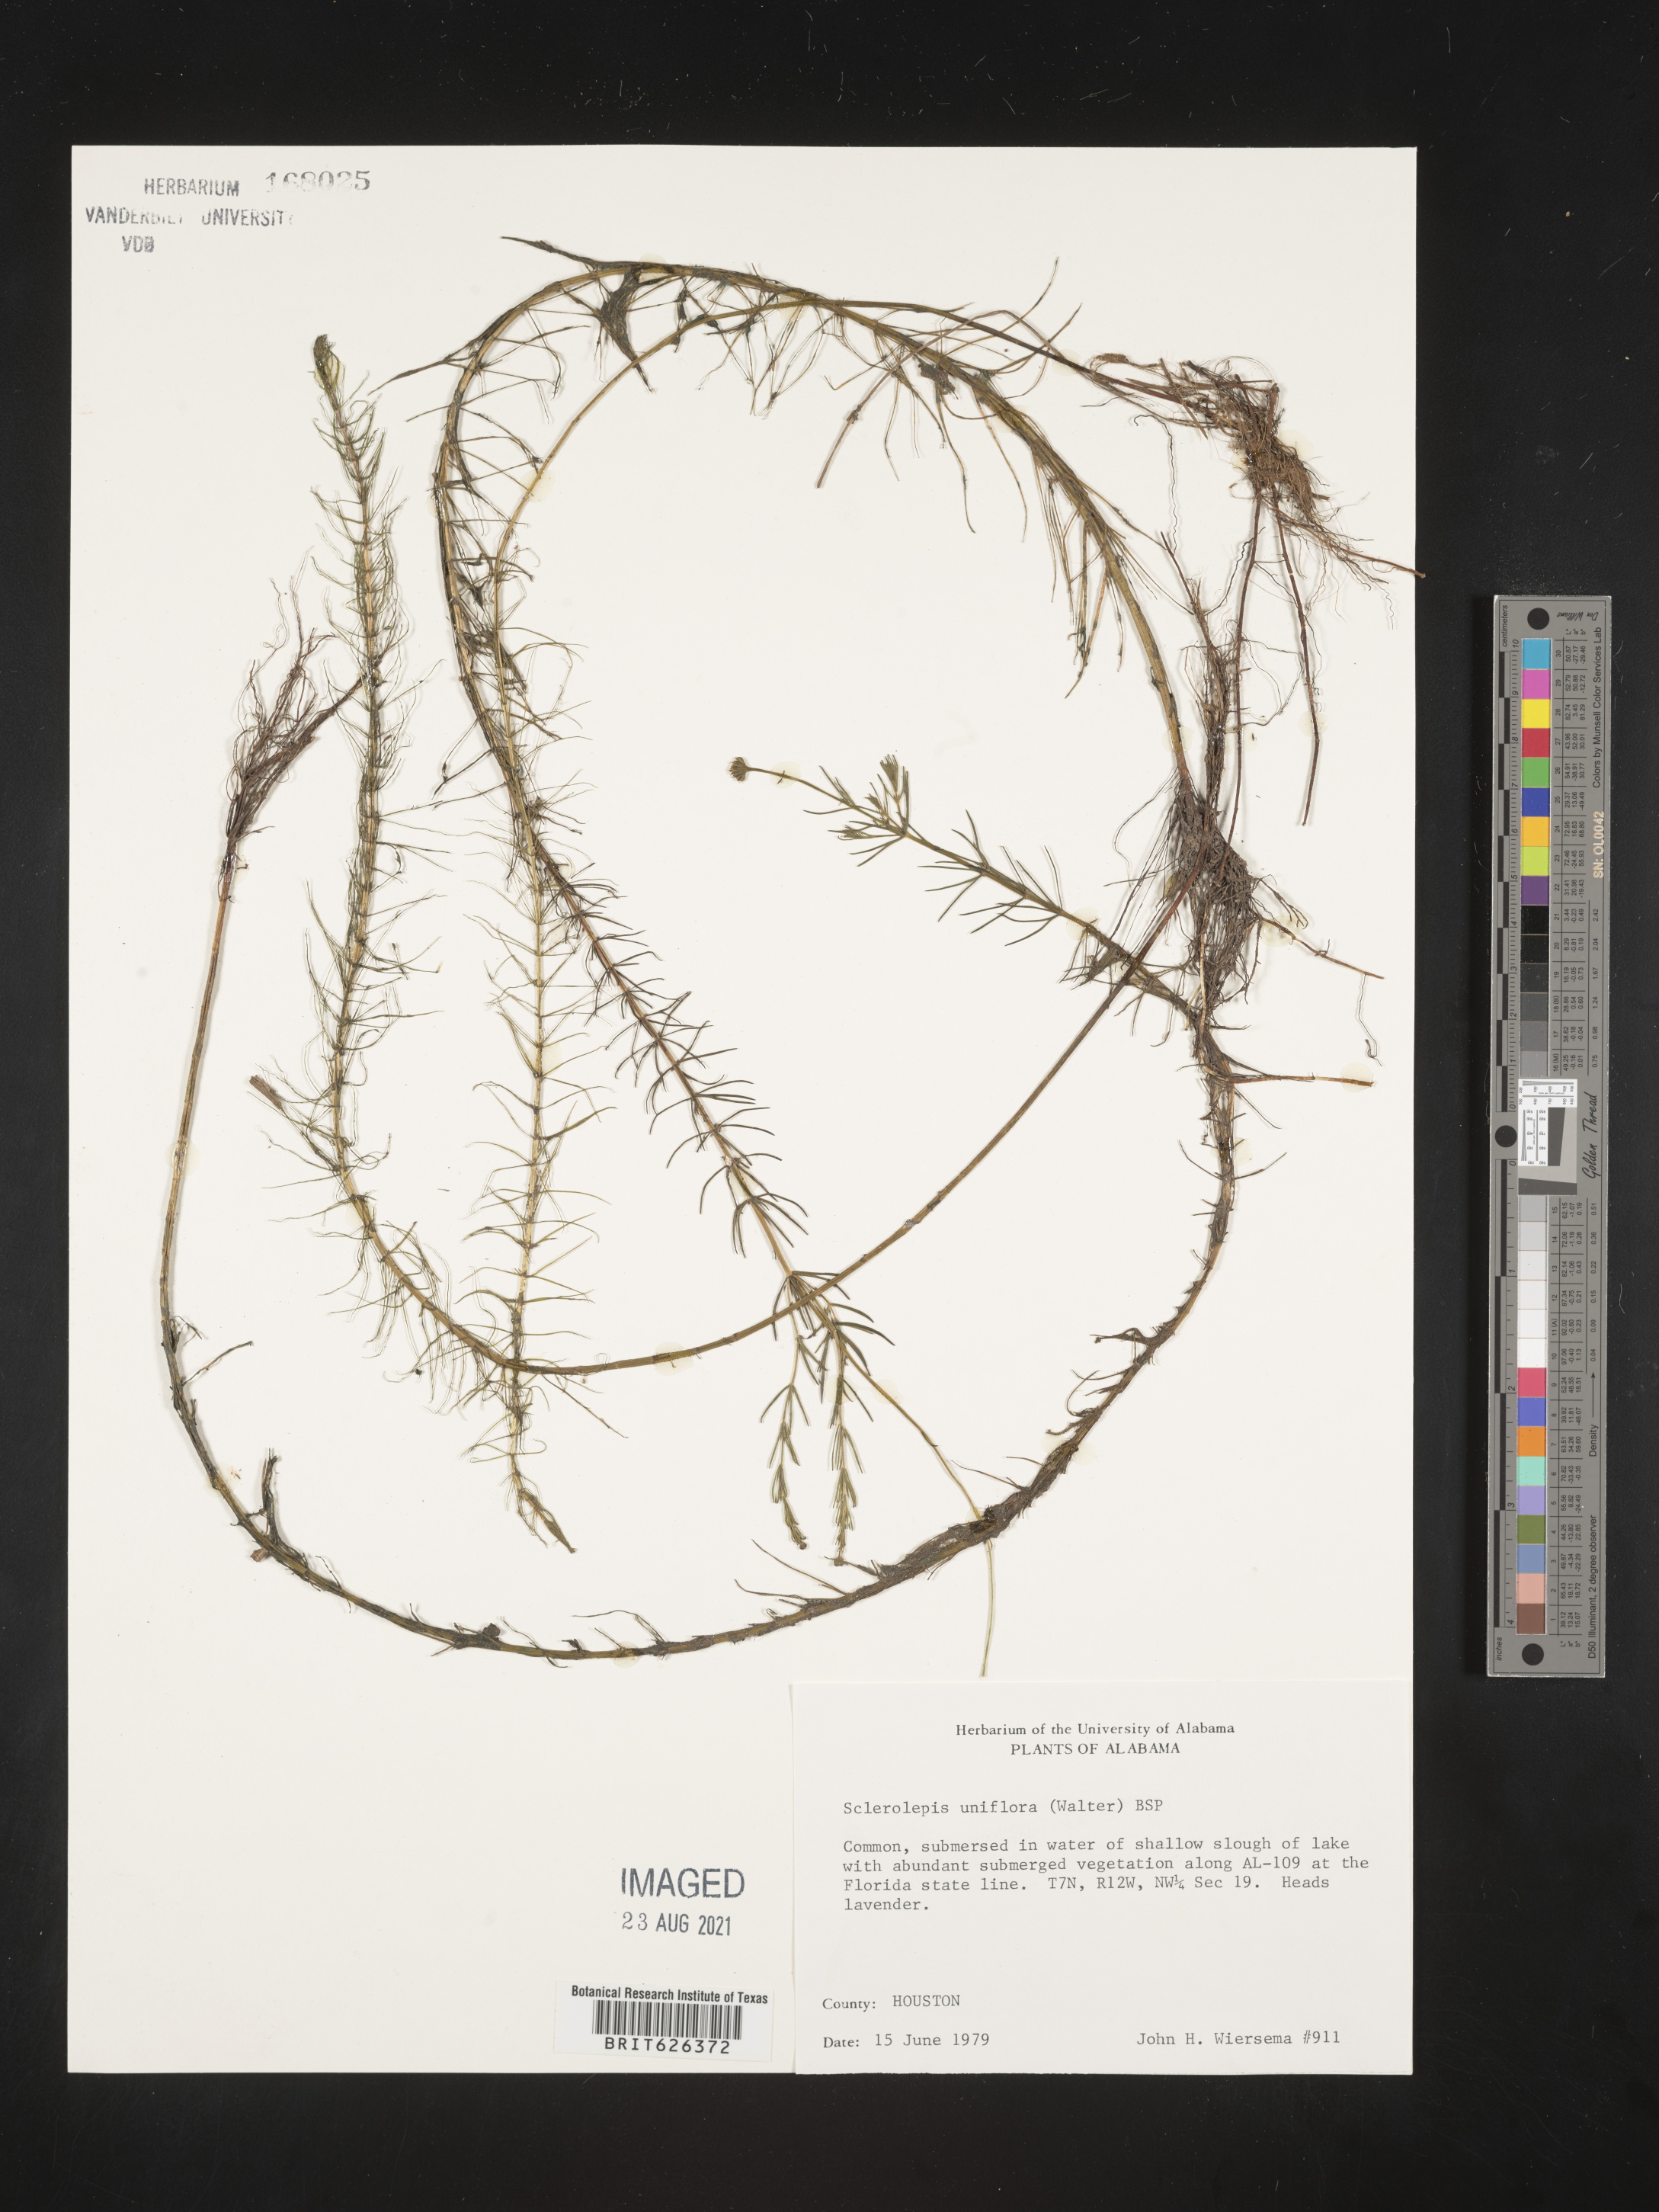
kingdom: Plantae
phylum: Tracheophyta
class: Magnoliopsida
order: Asterales
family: Asteraceae
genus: Sclerolepis
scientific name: Sclerolepis
